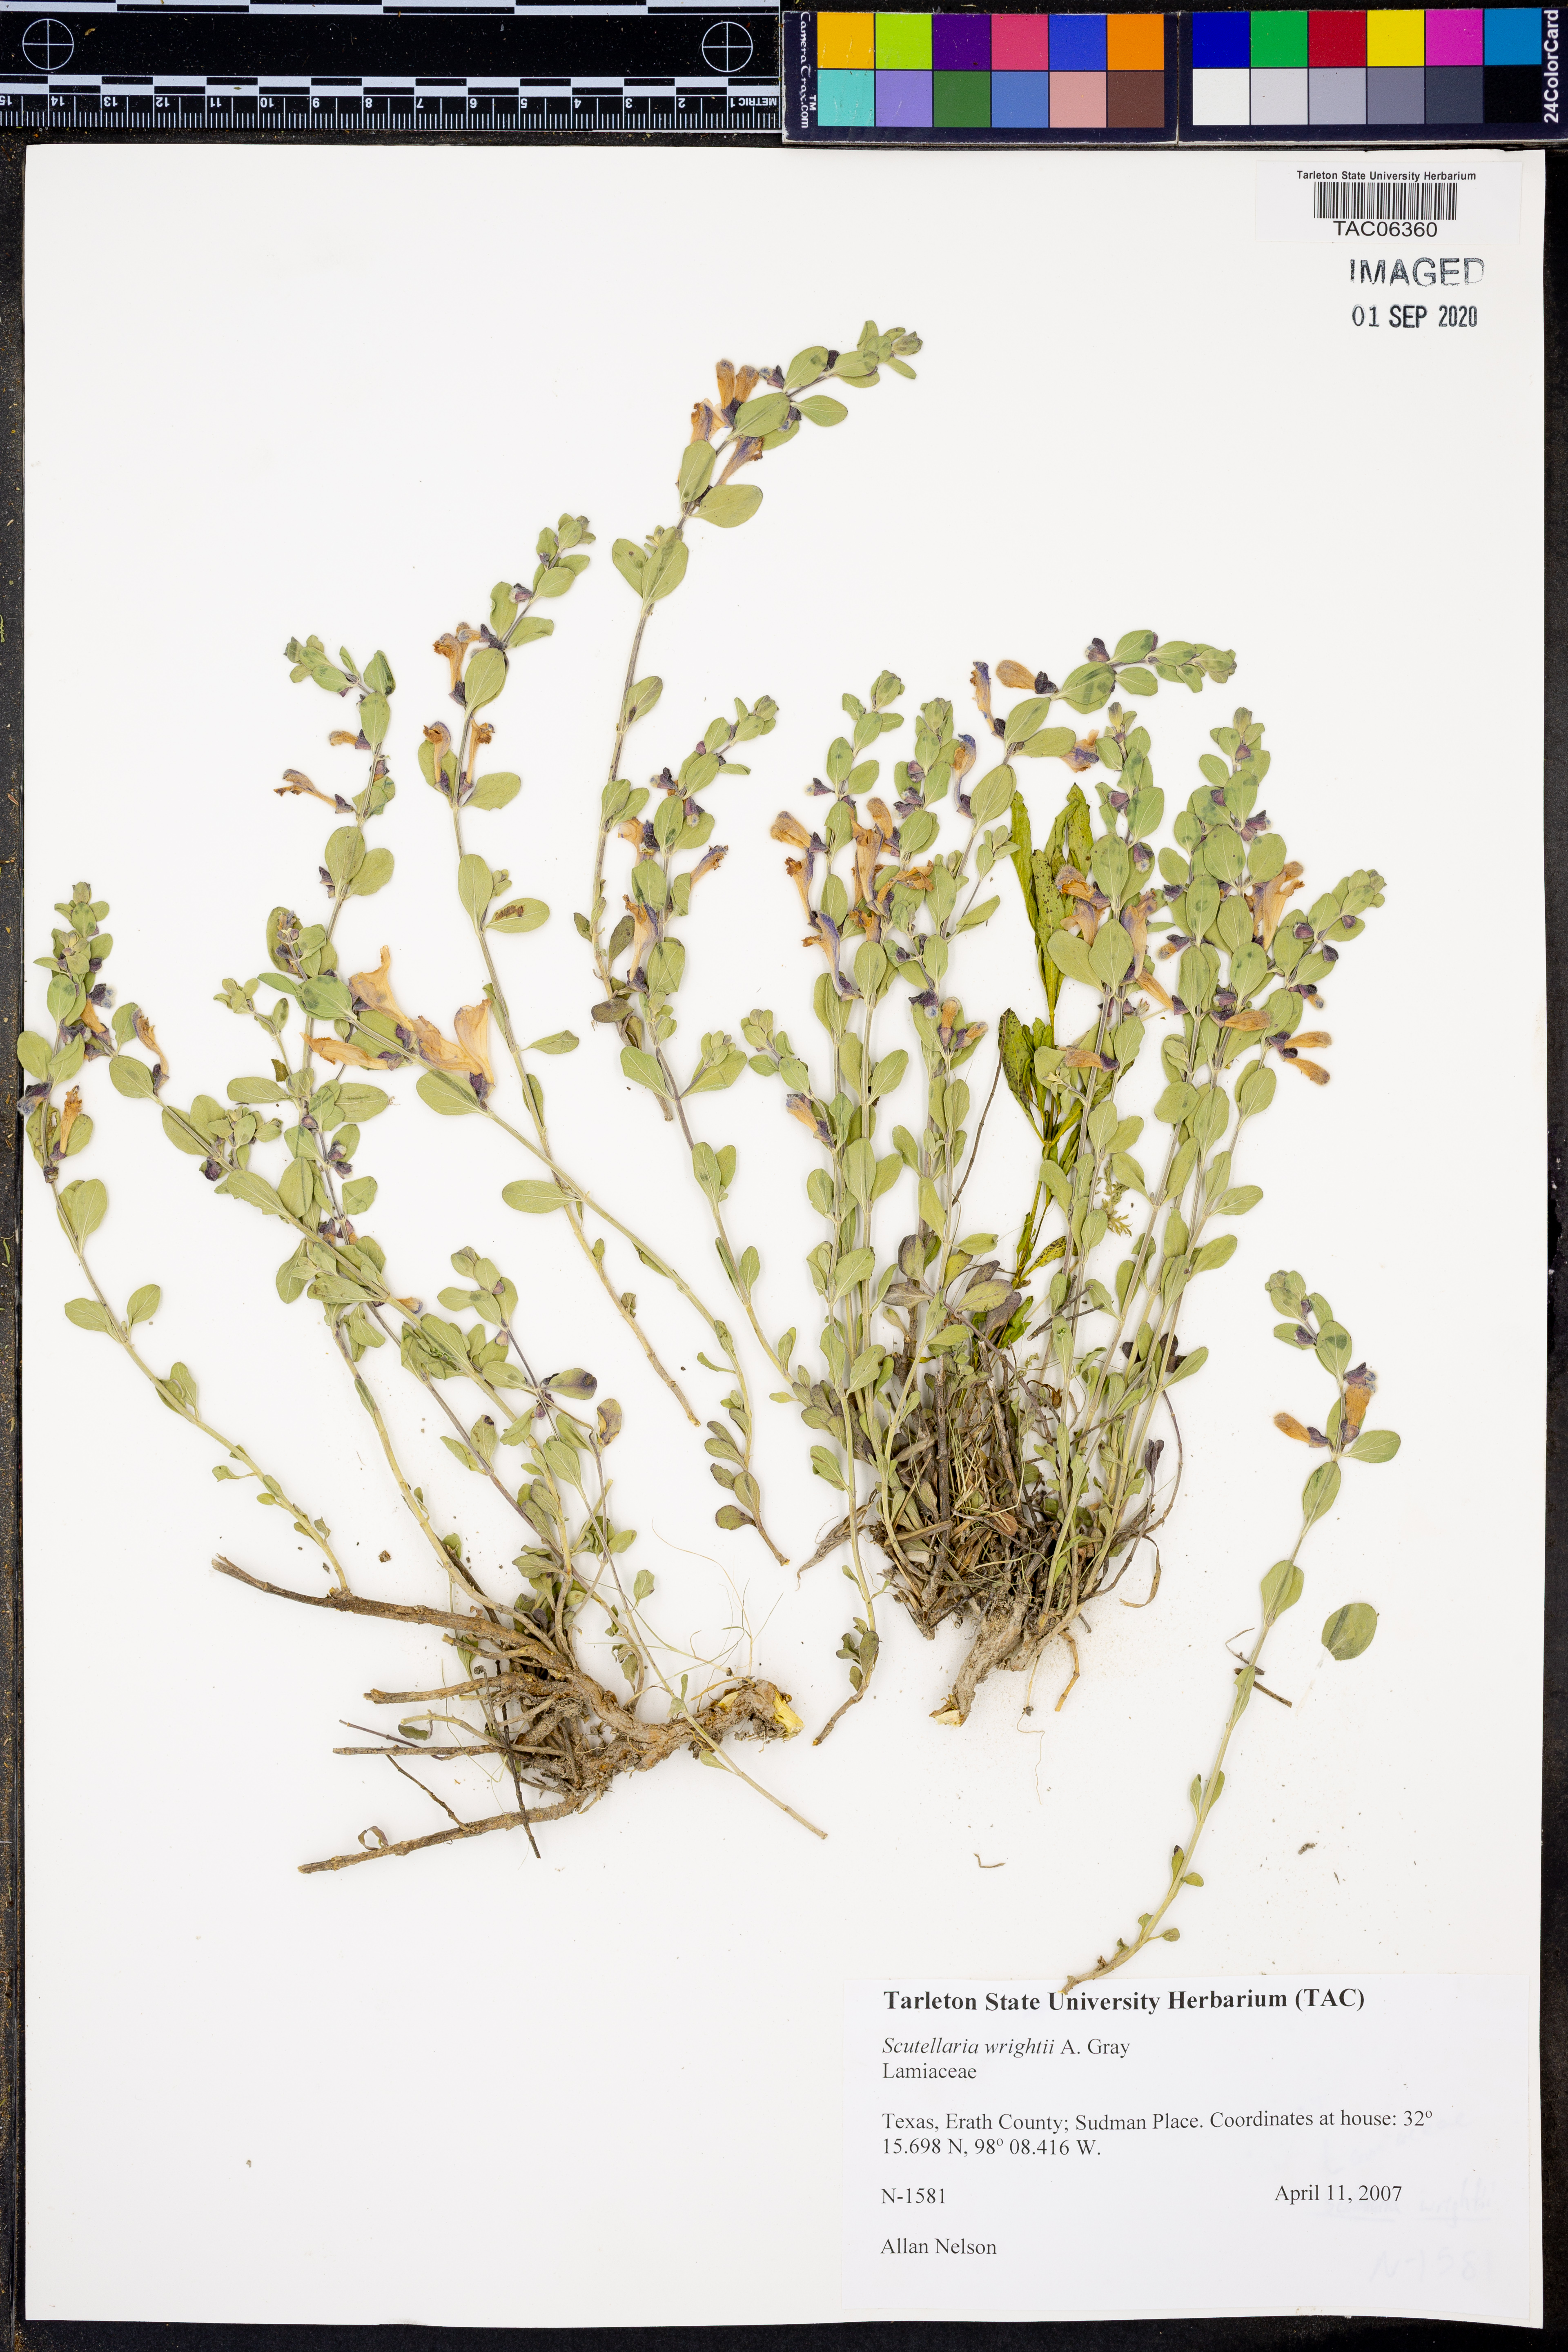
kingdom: Plantae
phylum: Tracheophyta
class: Magnoliopsida
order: Lamiales
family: Lamiaceae
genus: Scutellaria
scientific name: Scutellaria wrightii
